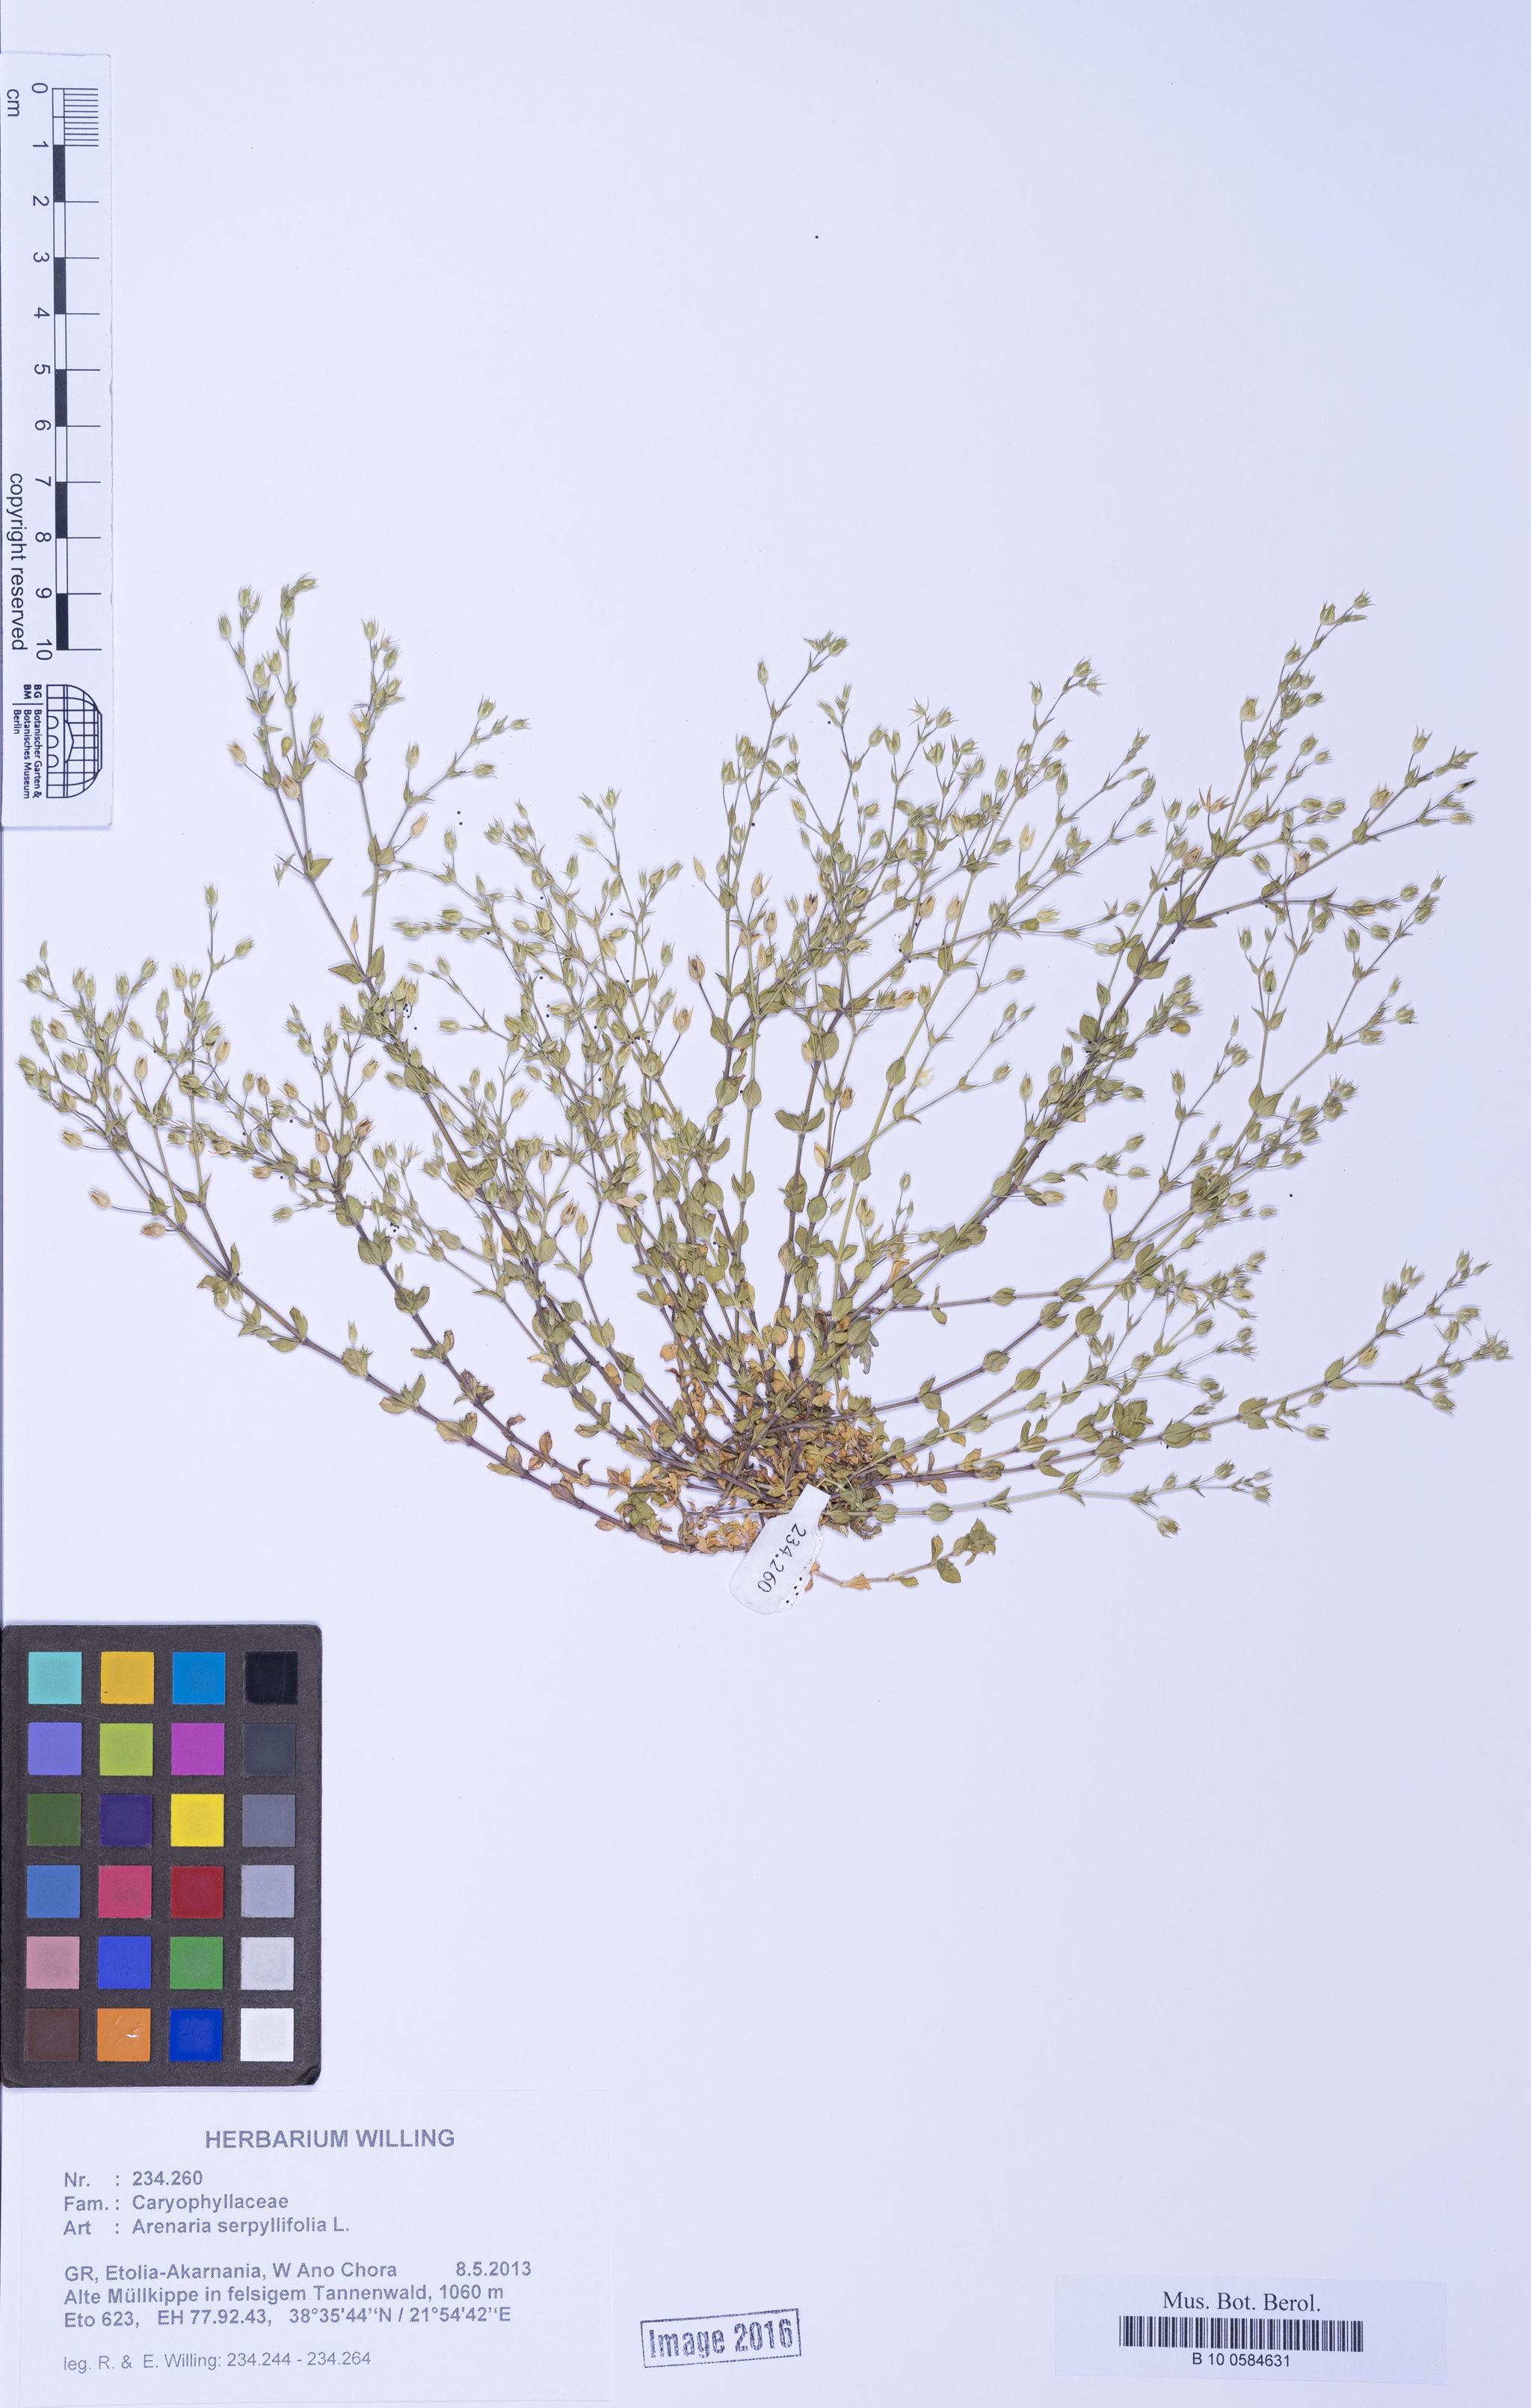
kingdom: Plantae
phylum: Tracheophyta
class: Magnoliopsida
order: Caryophyllales
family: Caryophyllaceae
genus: Arenaria
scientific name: Arenaria serpyllifolia
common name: Thyme-leaved sandwort
